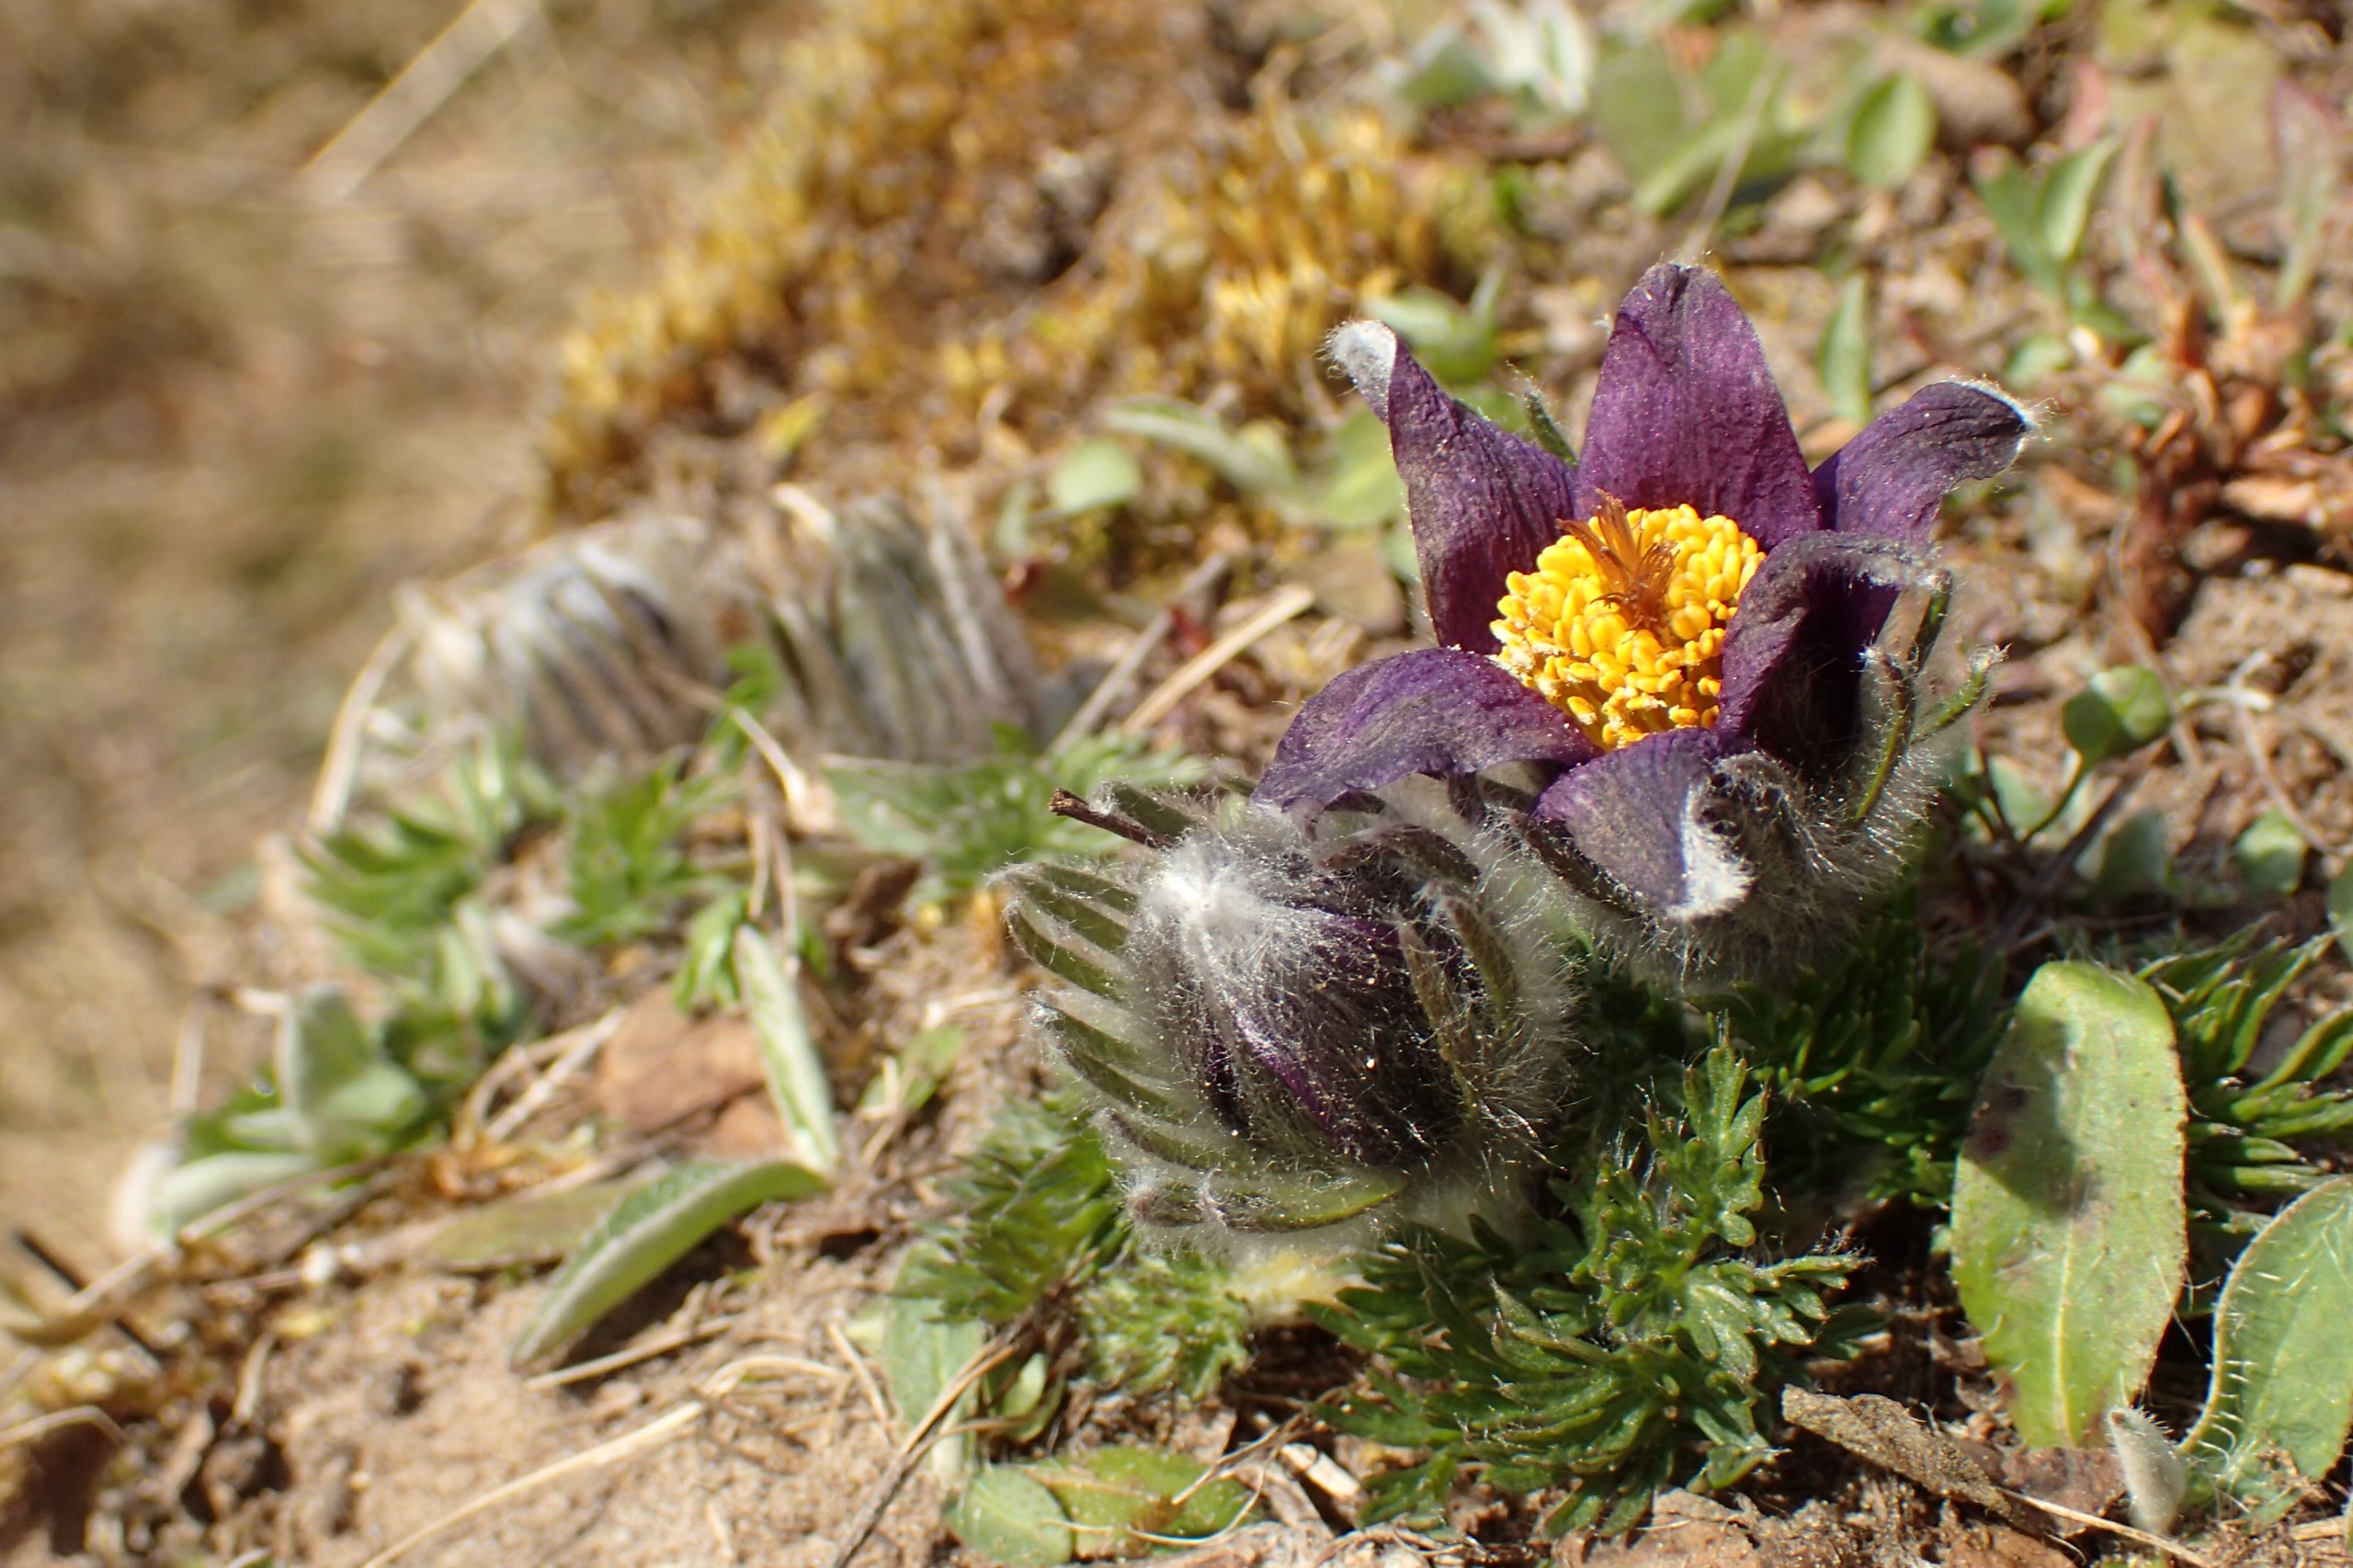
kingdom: Plantae
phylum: Tracheophyta
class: Magnoliopsida
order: Ranunculales
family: Ranunculaceae
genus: Pulsatilla
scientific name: Pulsatilla vulgaris
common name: Opret kobjælde
